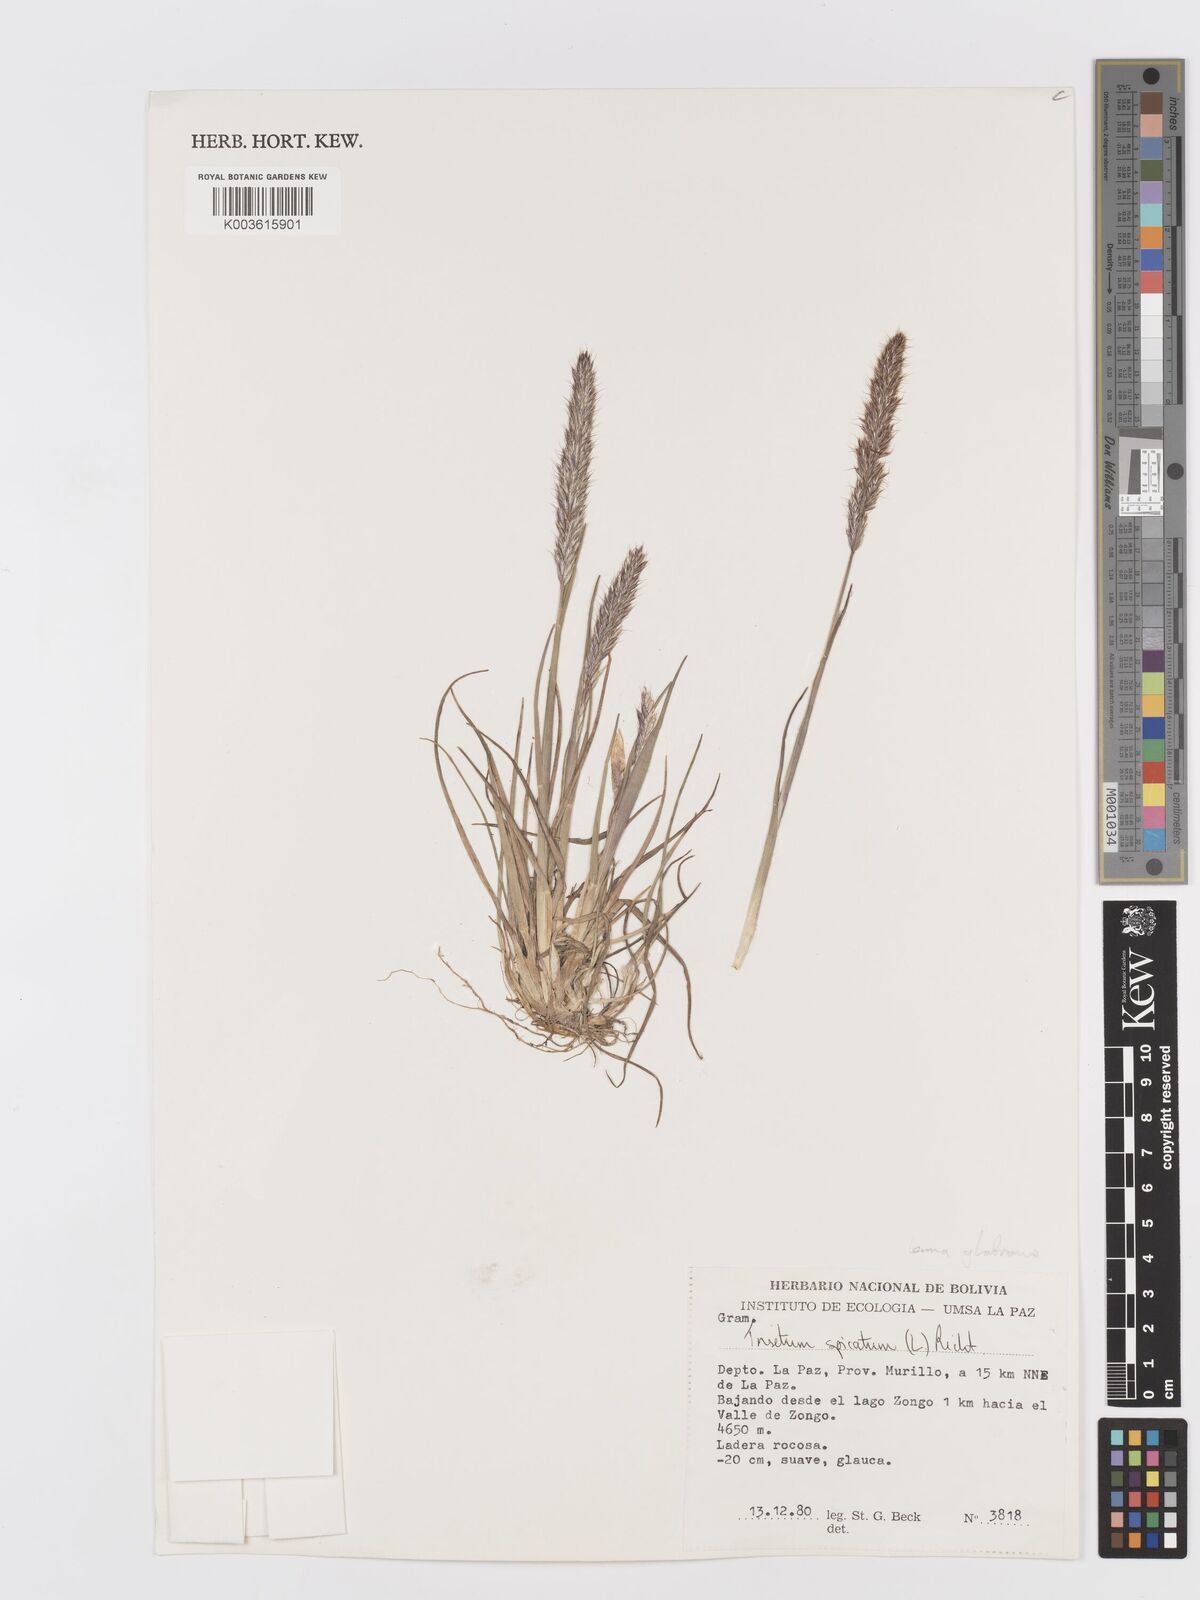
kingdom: Plantae
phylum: Tracheophyta
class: Liliopsida
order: Poales
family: Poaceae
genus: Koeleria
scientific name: Koeleria spicata
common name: Mountain trisetum
